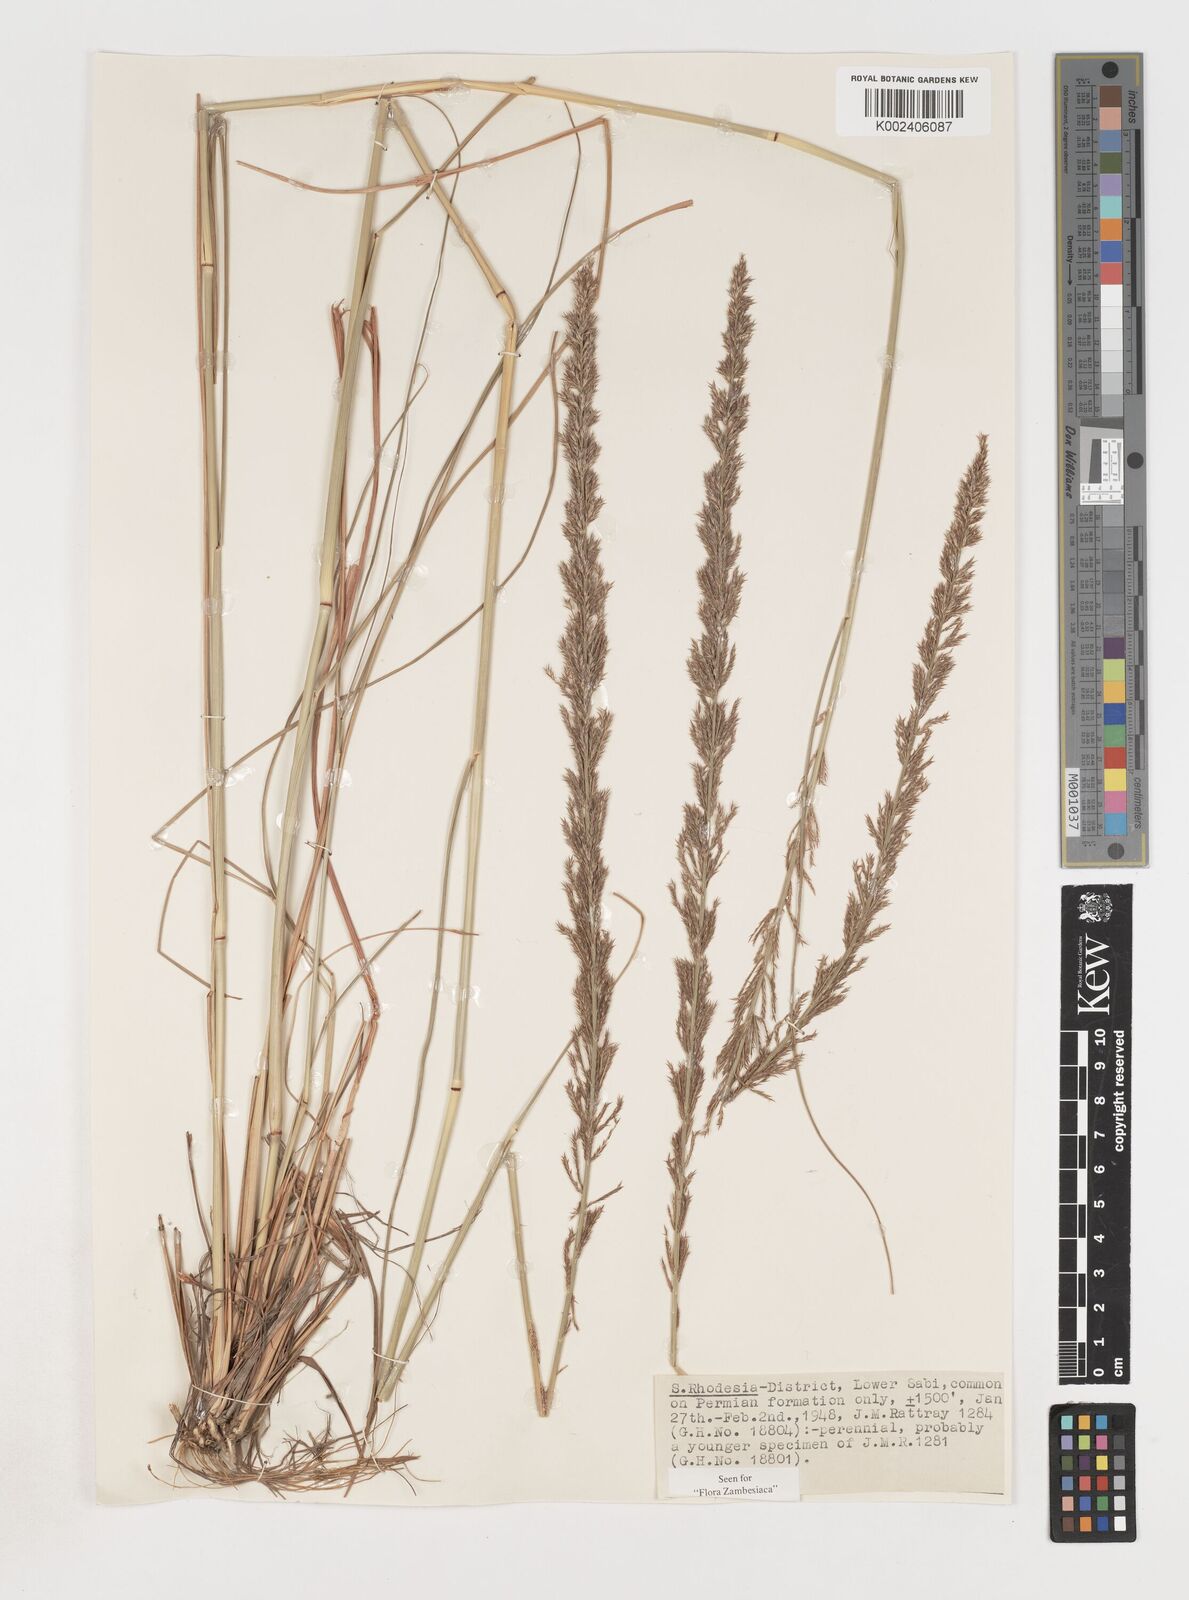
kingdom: Plantae
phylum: Tracheophyta
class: Liliopsida
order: Poales
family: Poaceae
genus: Pogonarthria
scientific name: Pogonarthria squarrosa
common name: Grass
